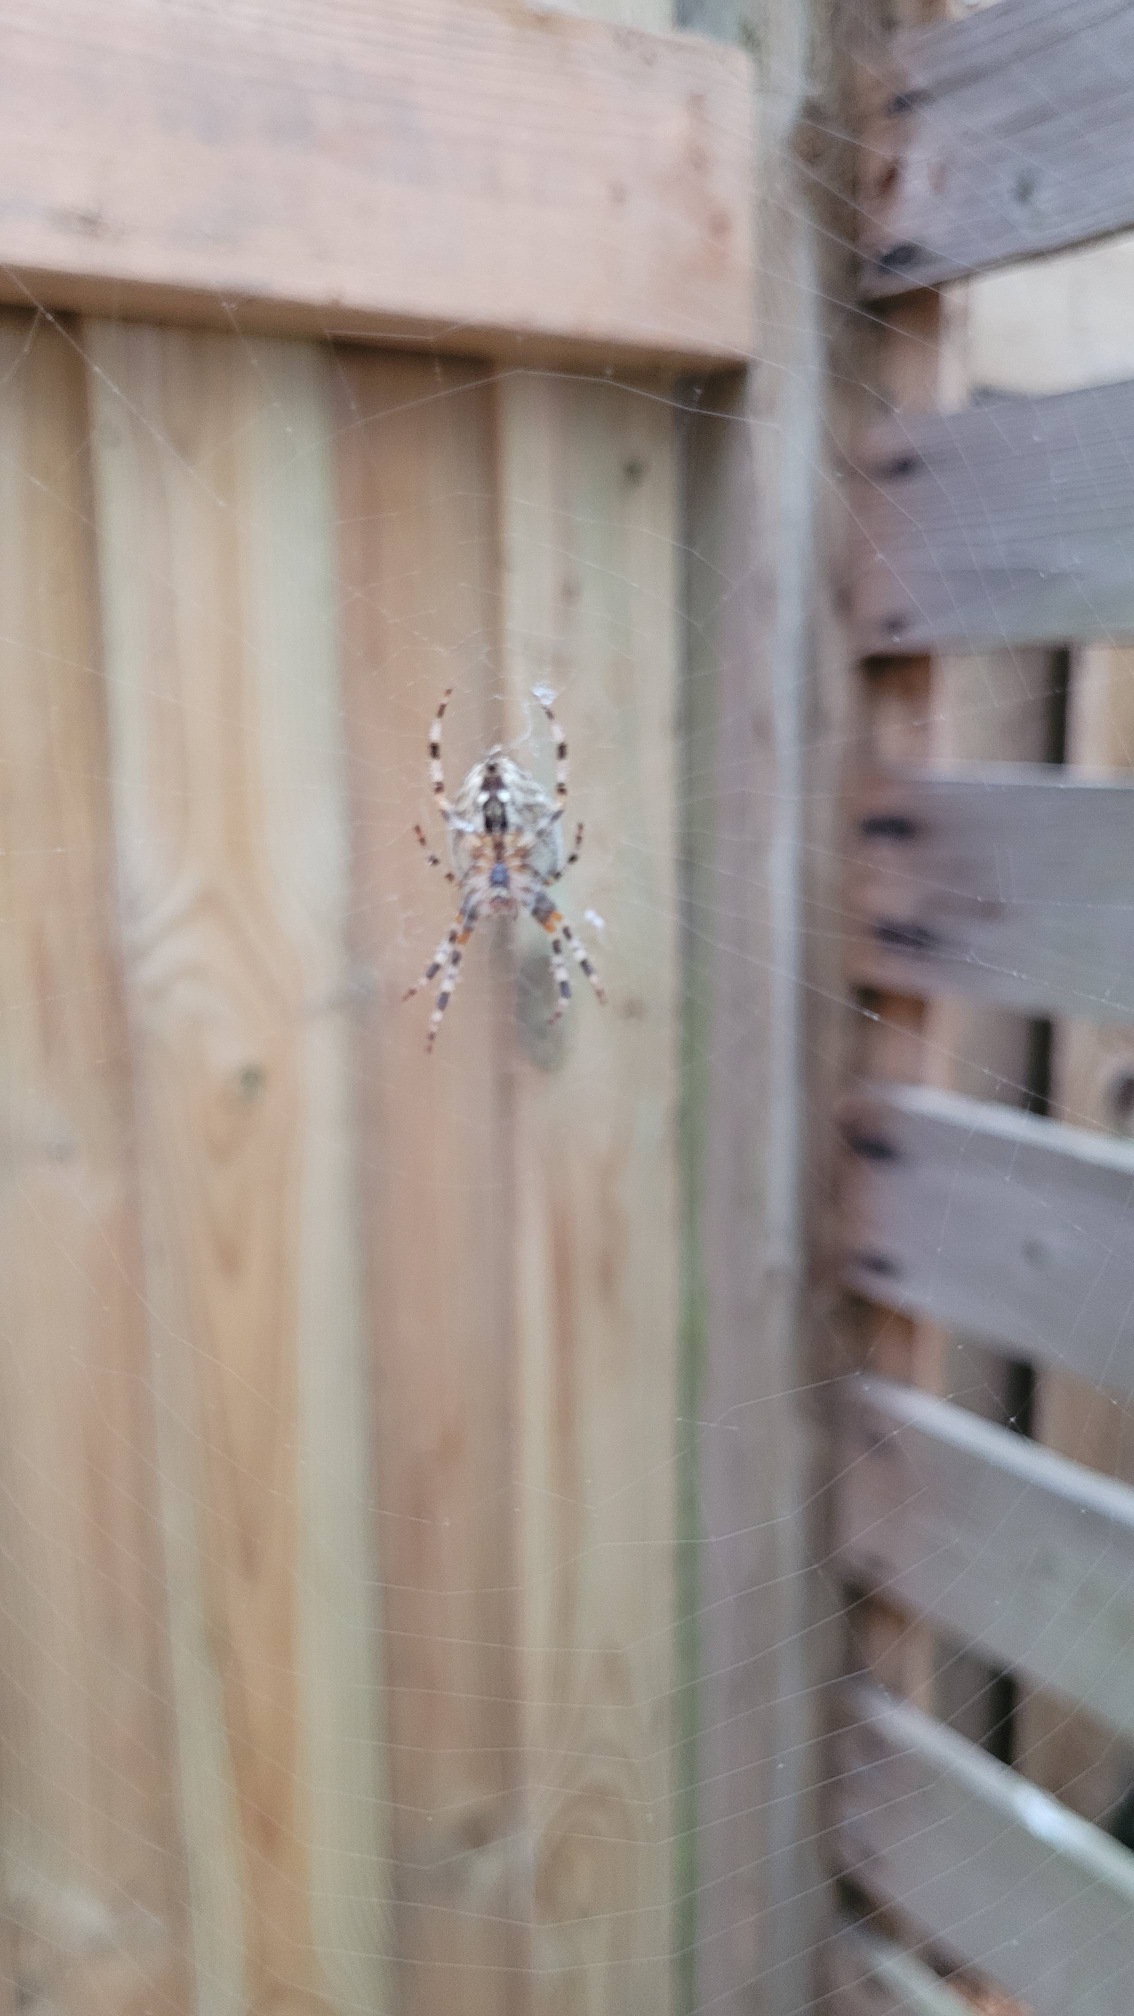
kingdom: Animalia
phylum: Arthropoda
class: Arachnida
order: Araneae
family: Araneidae
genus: Araneus
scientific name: Araneus diadematus
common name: Korsedderkop
